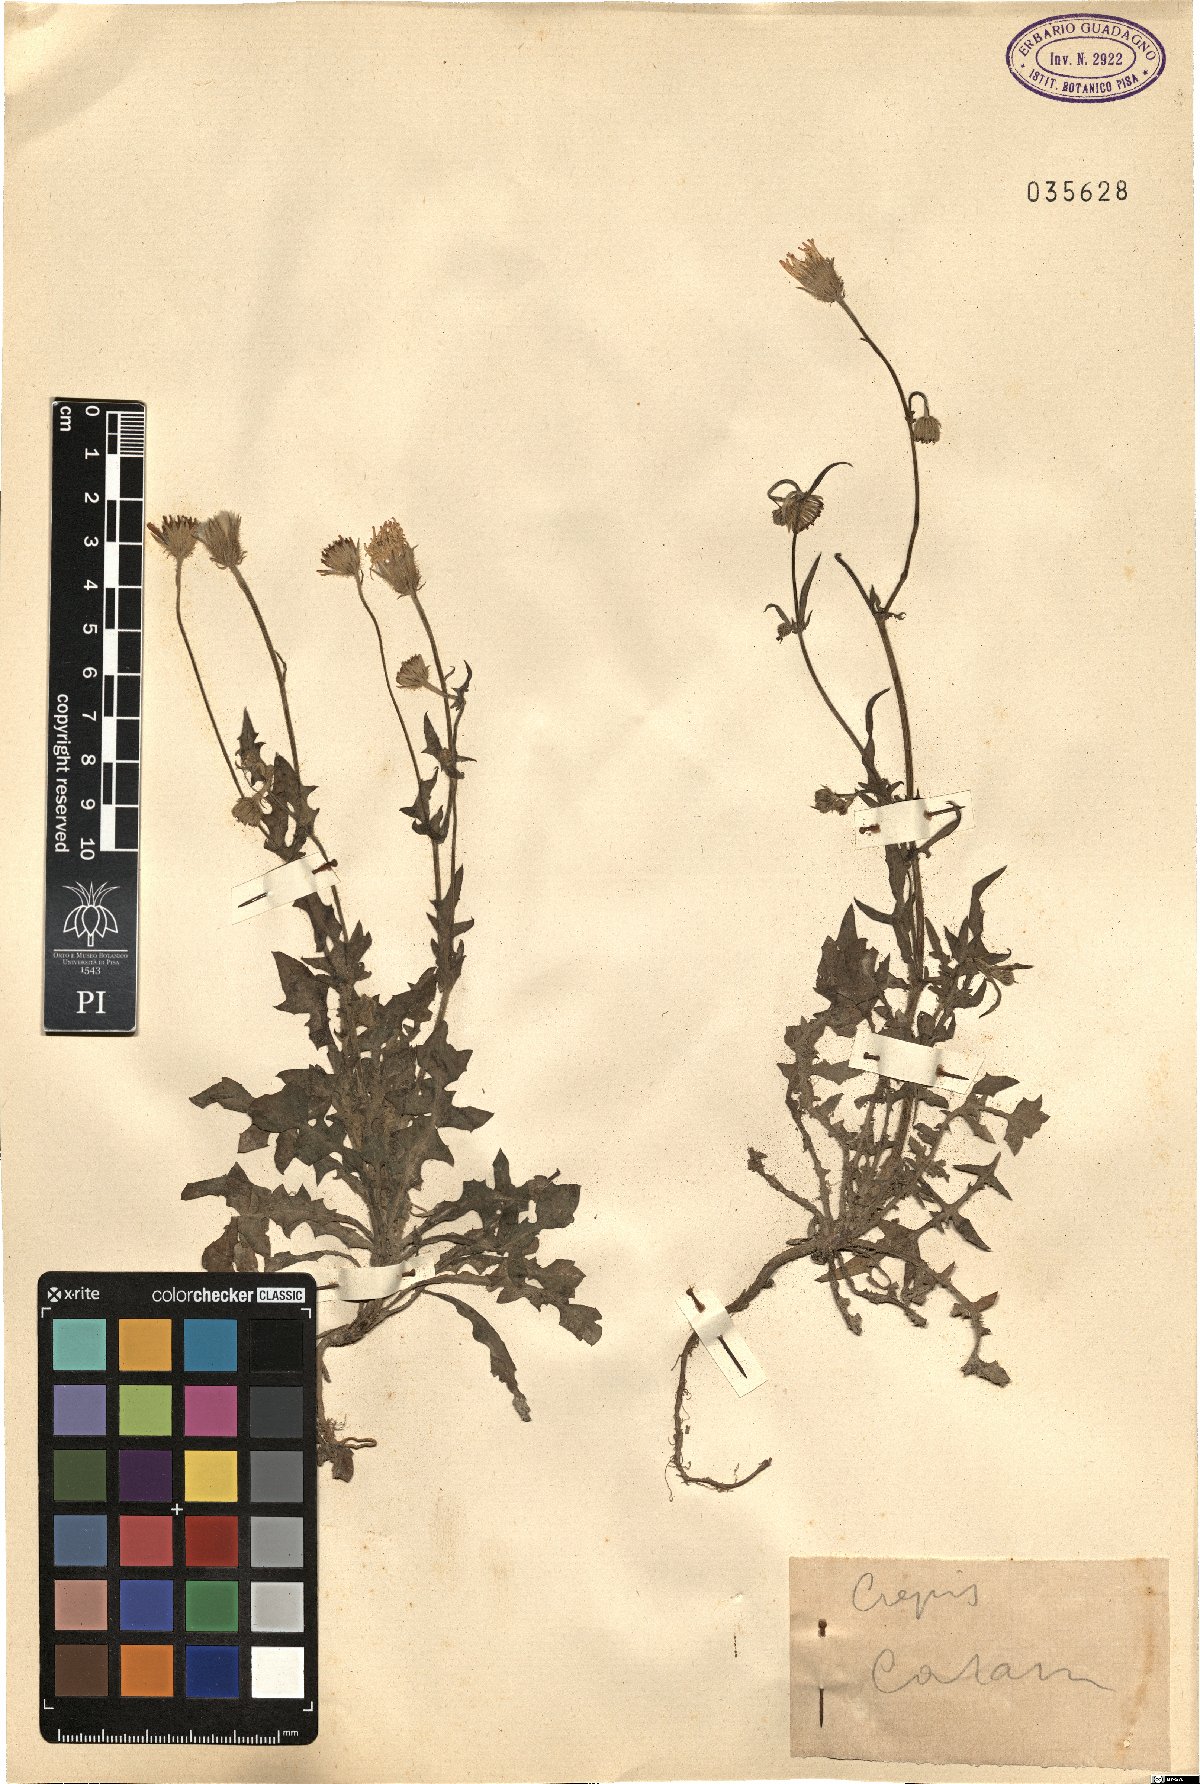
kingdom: Plantae
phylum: Tracheophyta
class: Magnoliopsida
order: Asterales
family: Asteraceae
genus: Crepis
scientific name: Crepis
